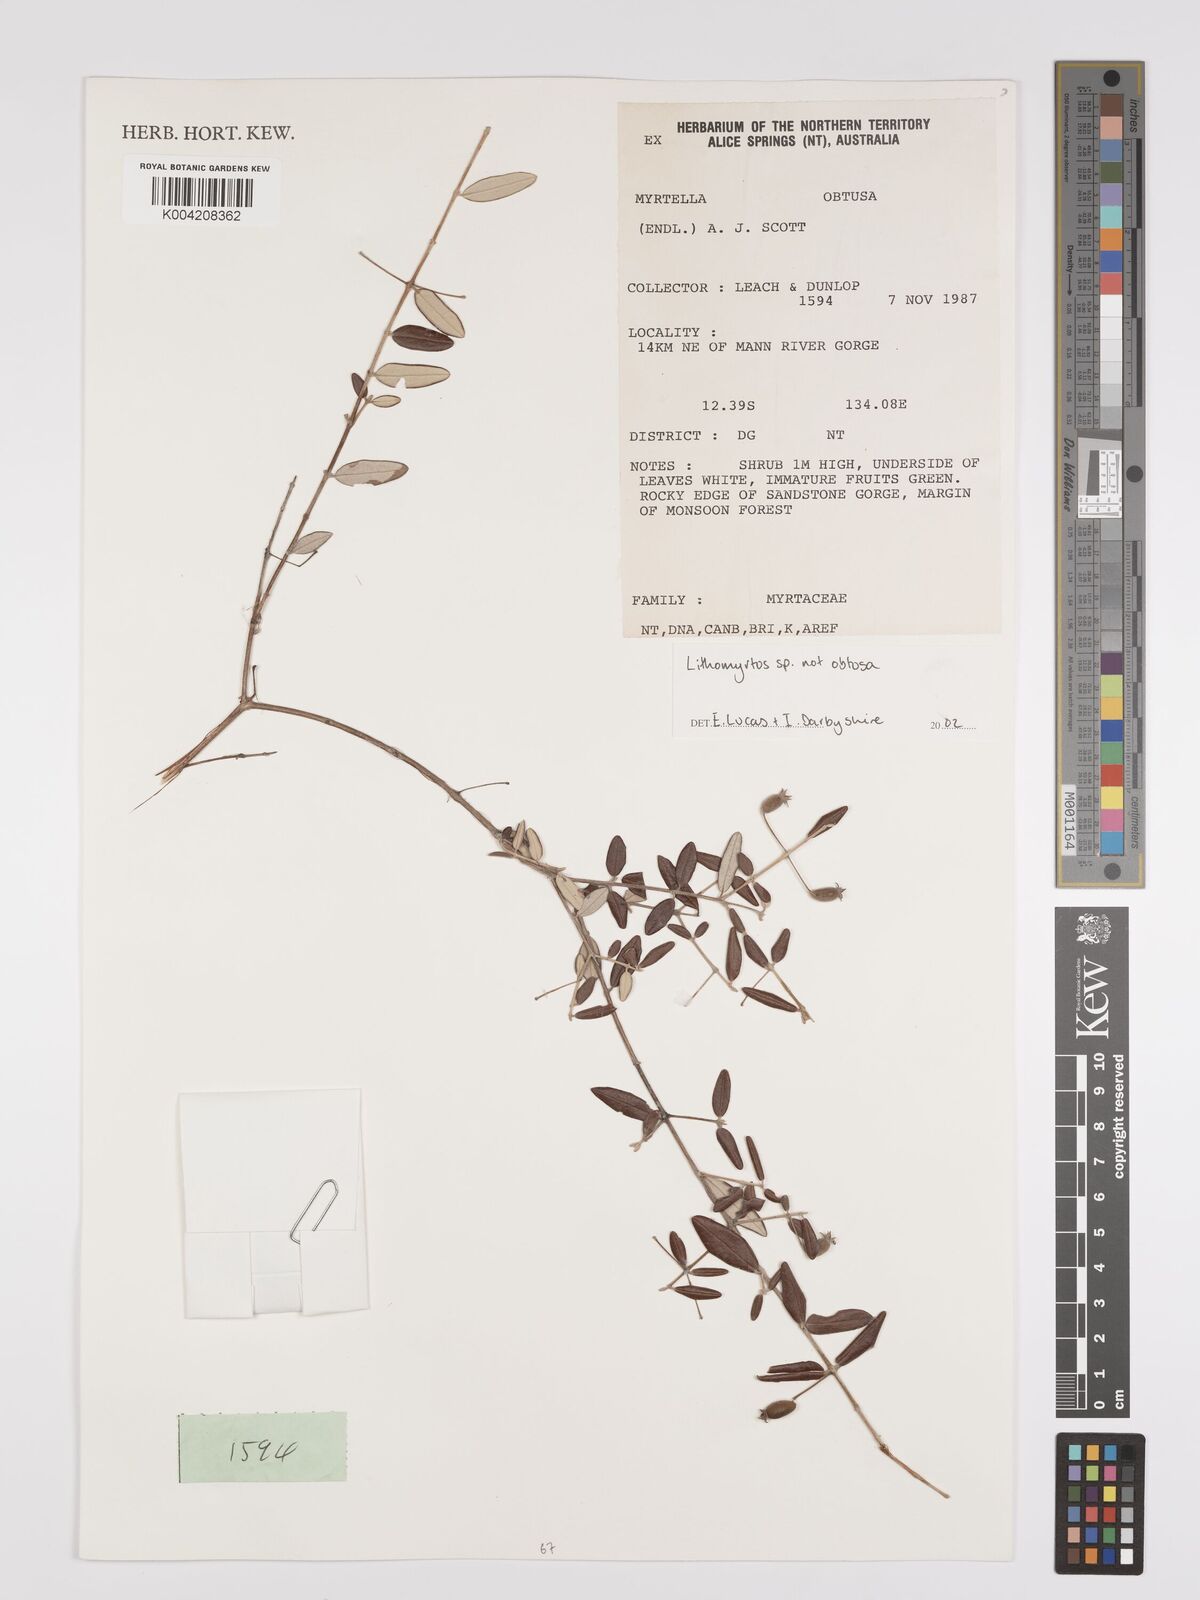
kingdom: Plantae
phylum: Tracheophyta
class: Magnoliopsida
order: Myrtales
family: Myrtaceae
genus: Lithomyrtus
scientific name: Lithomyrtus
